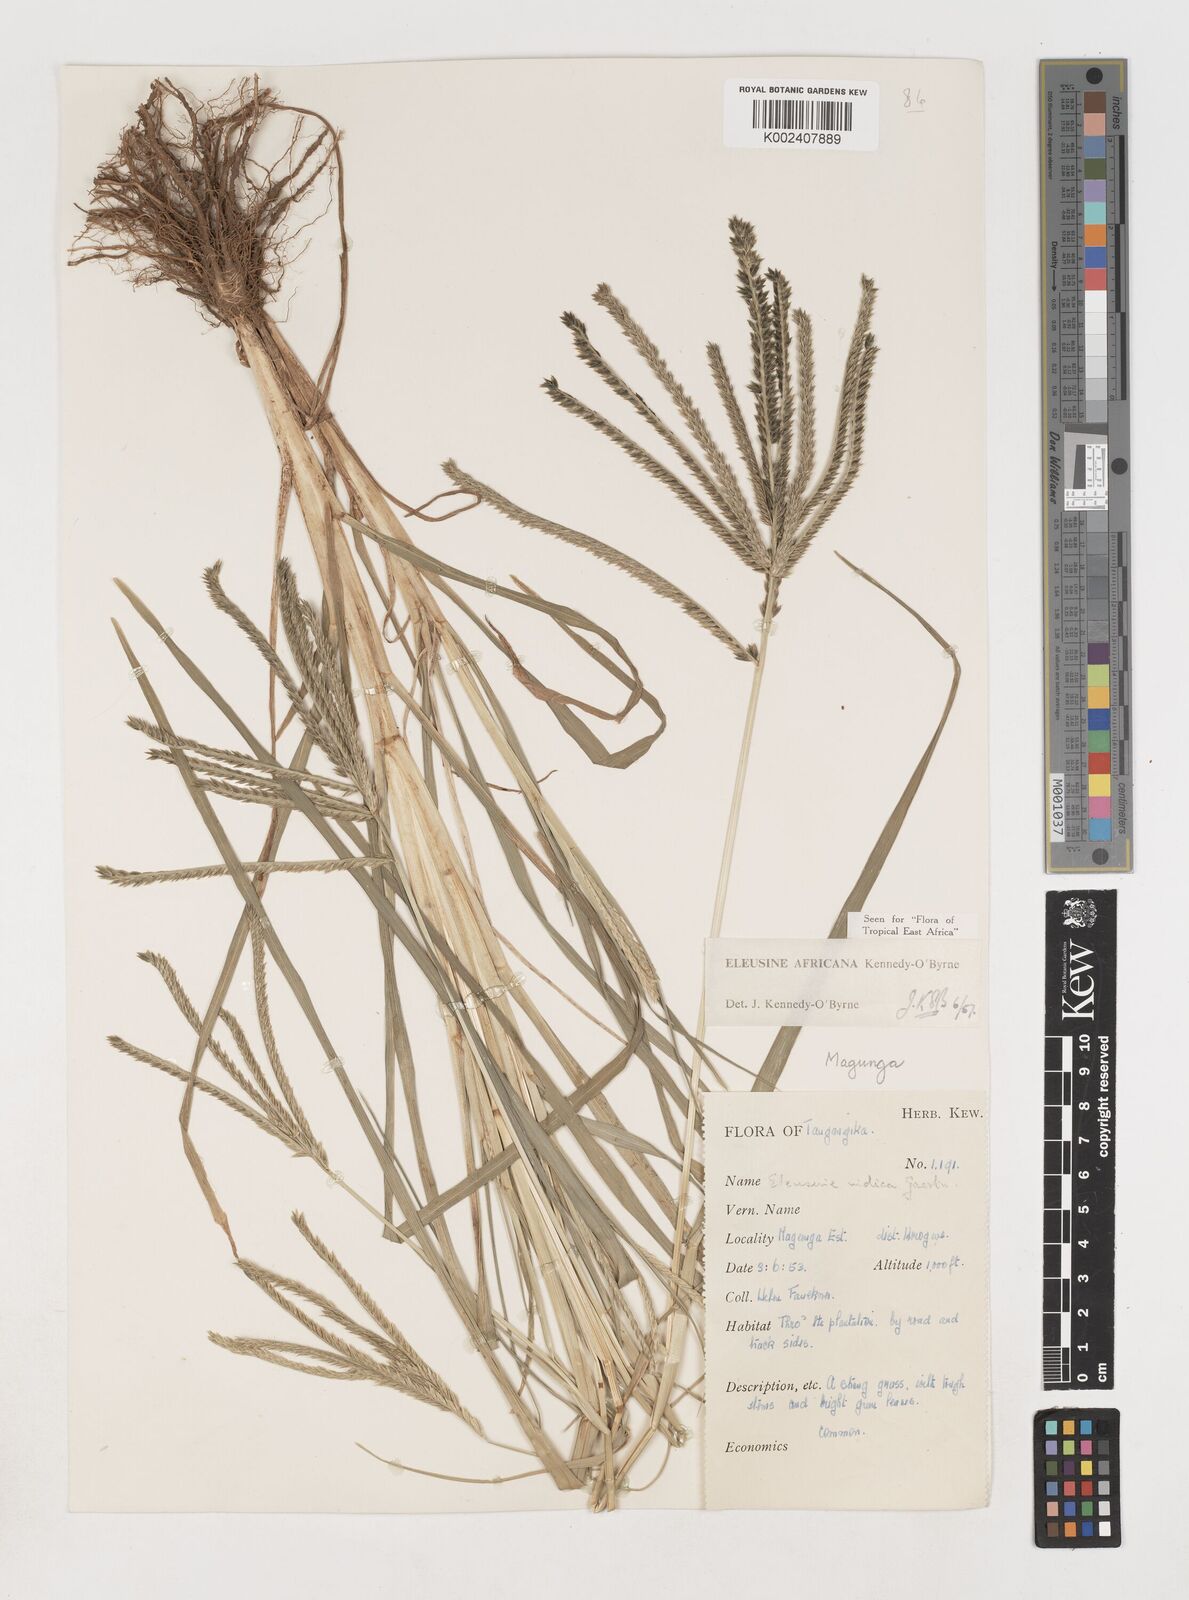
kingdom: Plantae
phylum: Tracheophyta
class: Liliopsida
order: Poales
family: Poaceae
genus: Eleusine
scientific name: Eleusine africana
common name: Wild african finger millet
